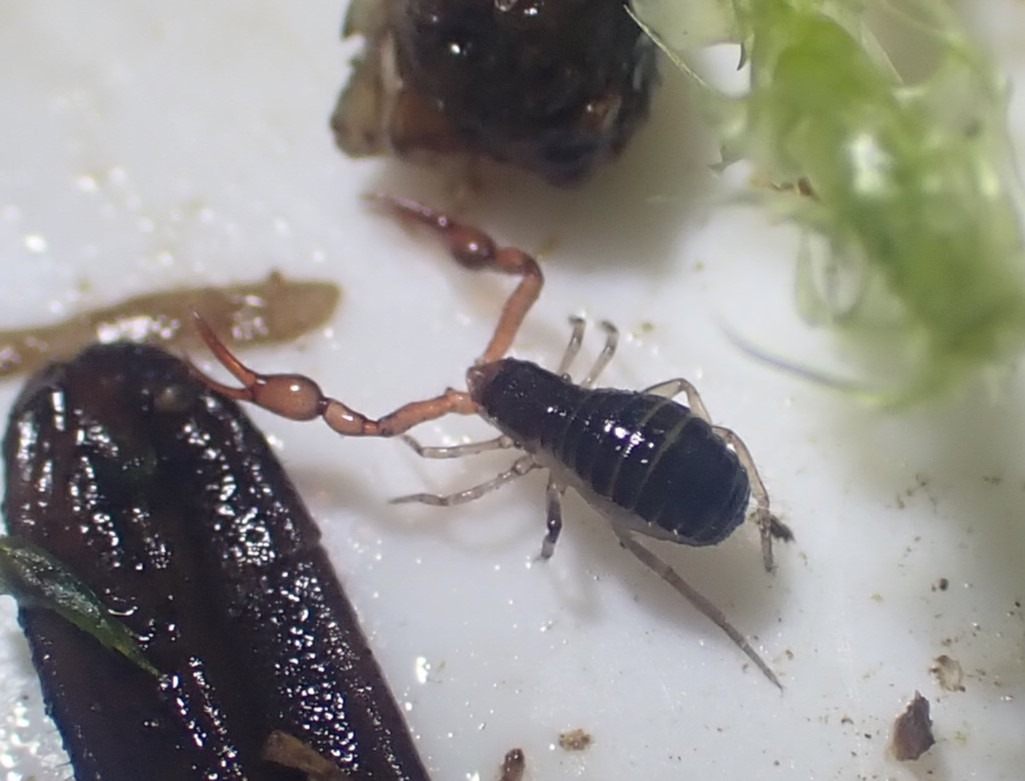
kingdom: Animalia
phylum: Arthropoda
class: Arachnida
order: Pseudoscorpiones
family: Neobisiidae
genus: Neobisium
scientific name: Neobisium carcinoides
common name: Almindelig mosskorpion
